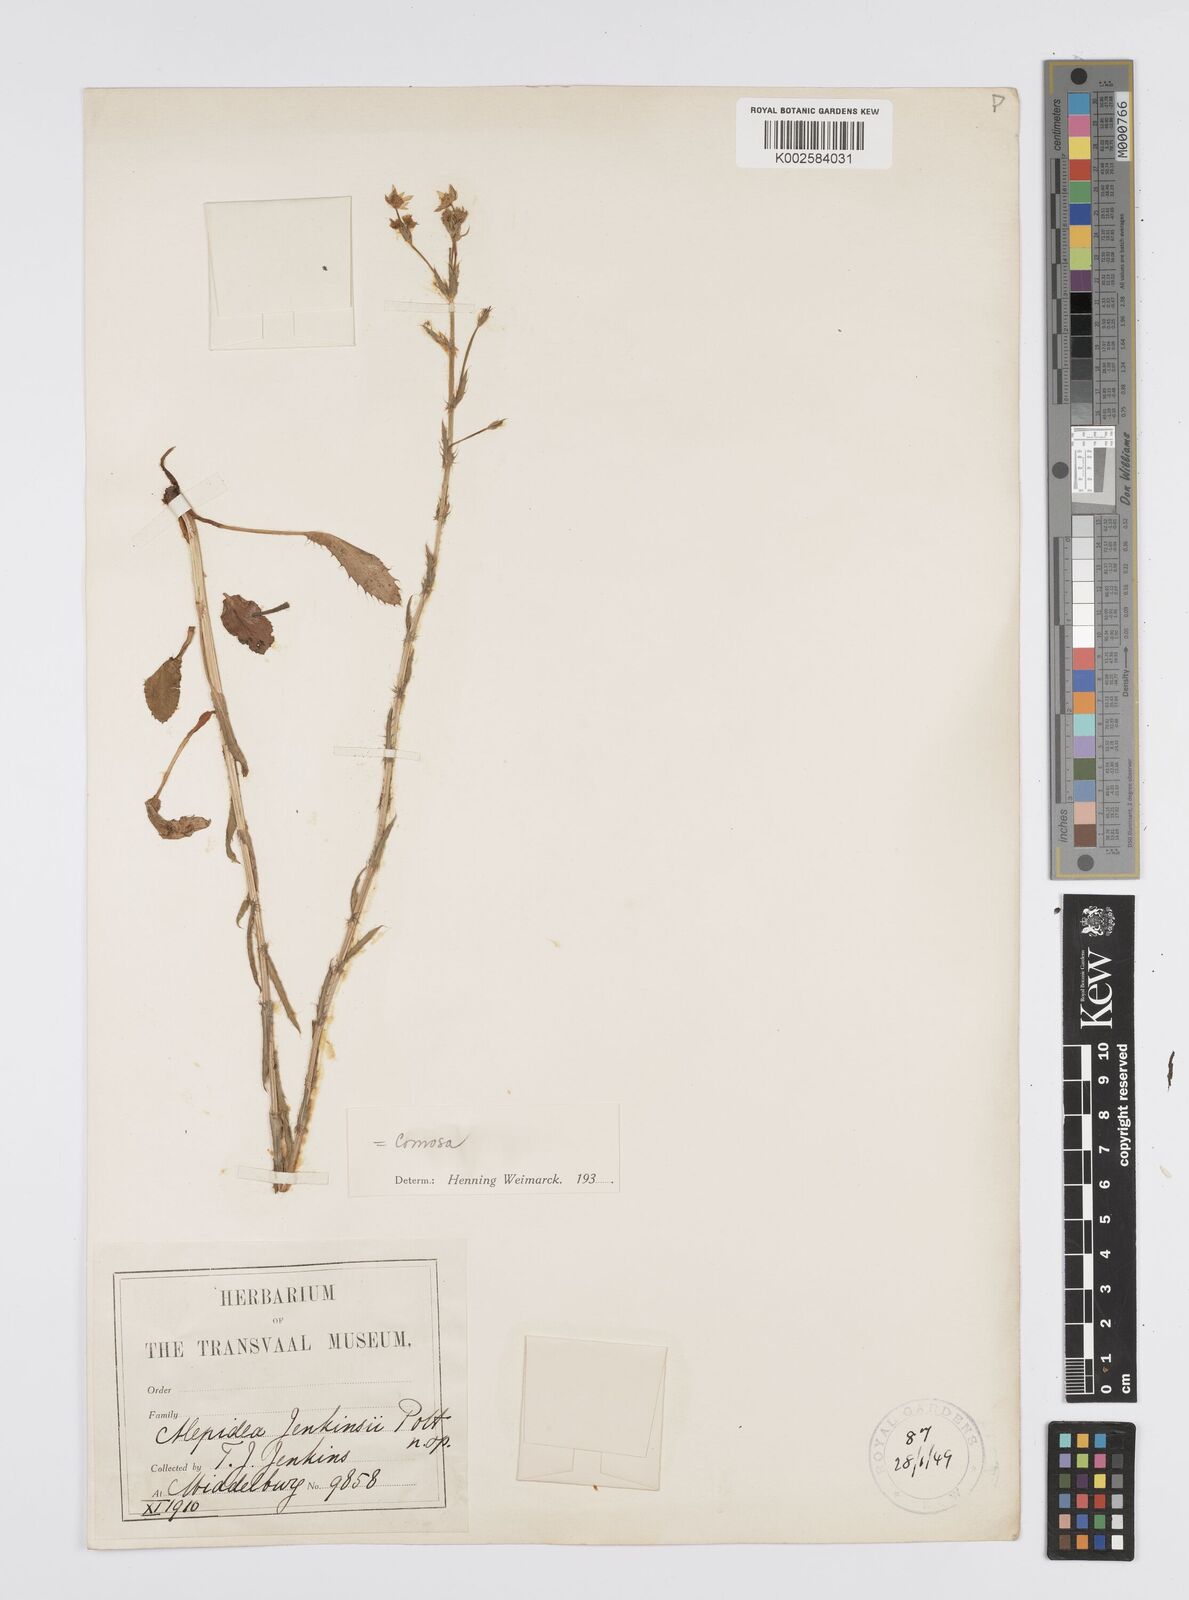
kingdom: Plantae
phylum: Tracheophyta
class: Magnoliopsida
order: Apiales
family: Apiaceae
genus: Alepidea
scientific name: Alepidea
